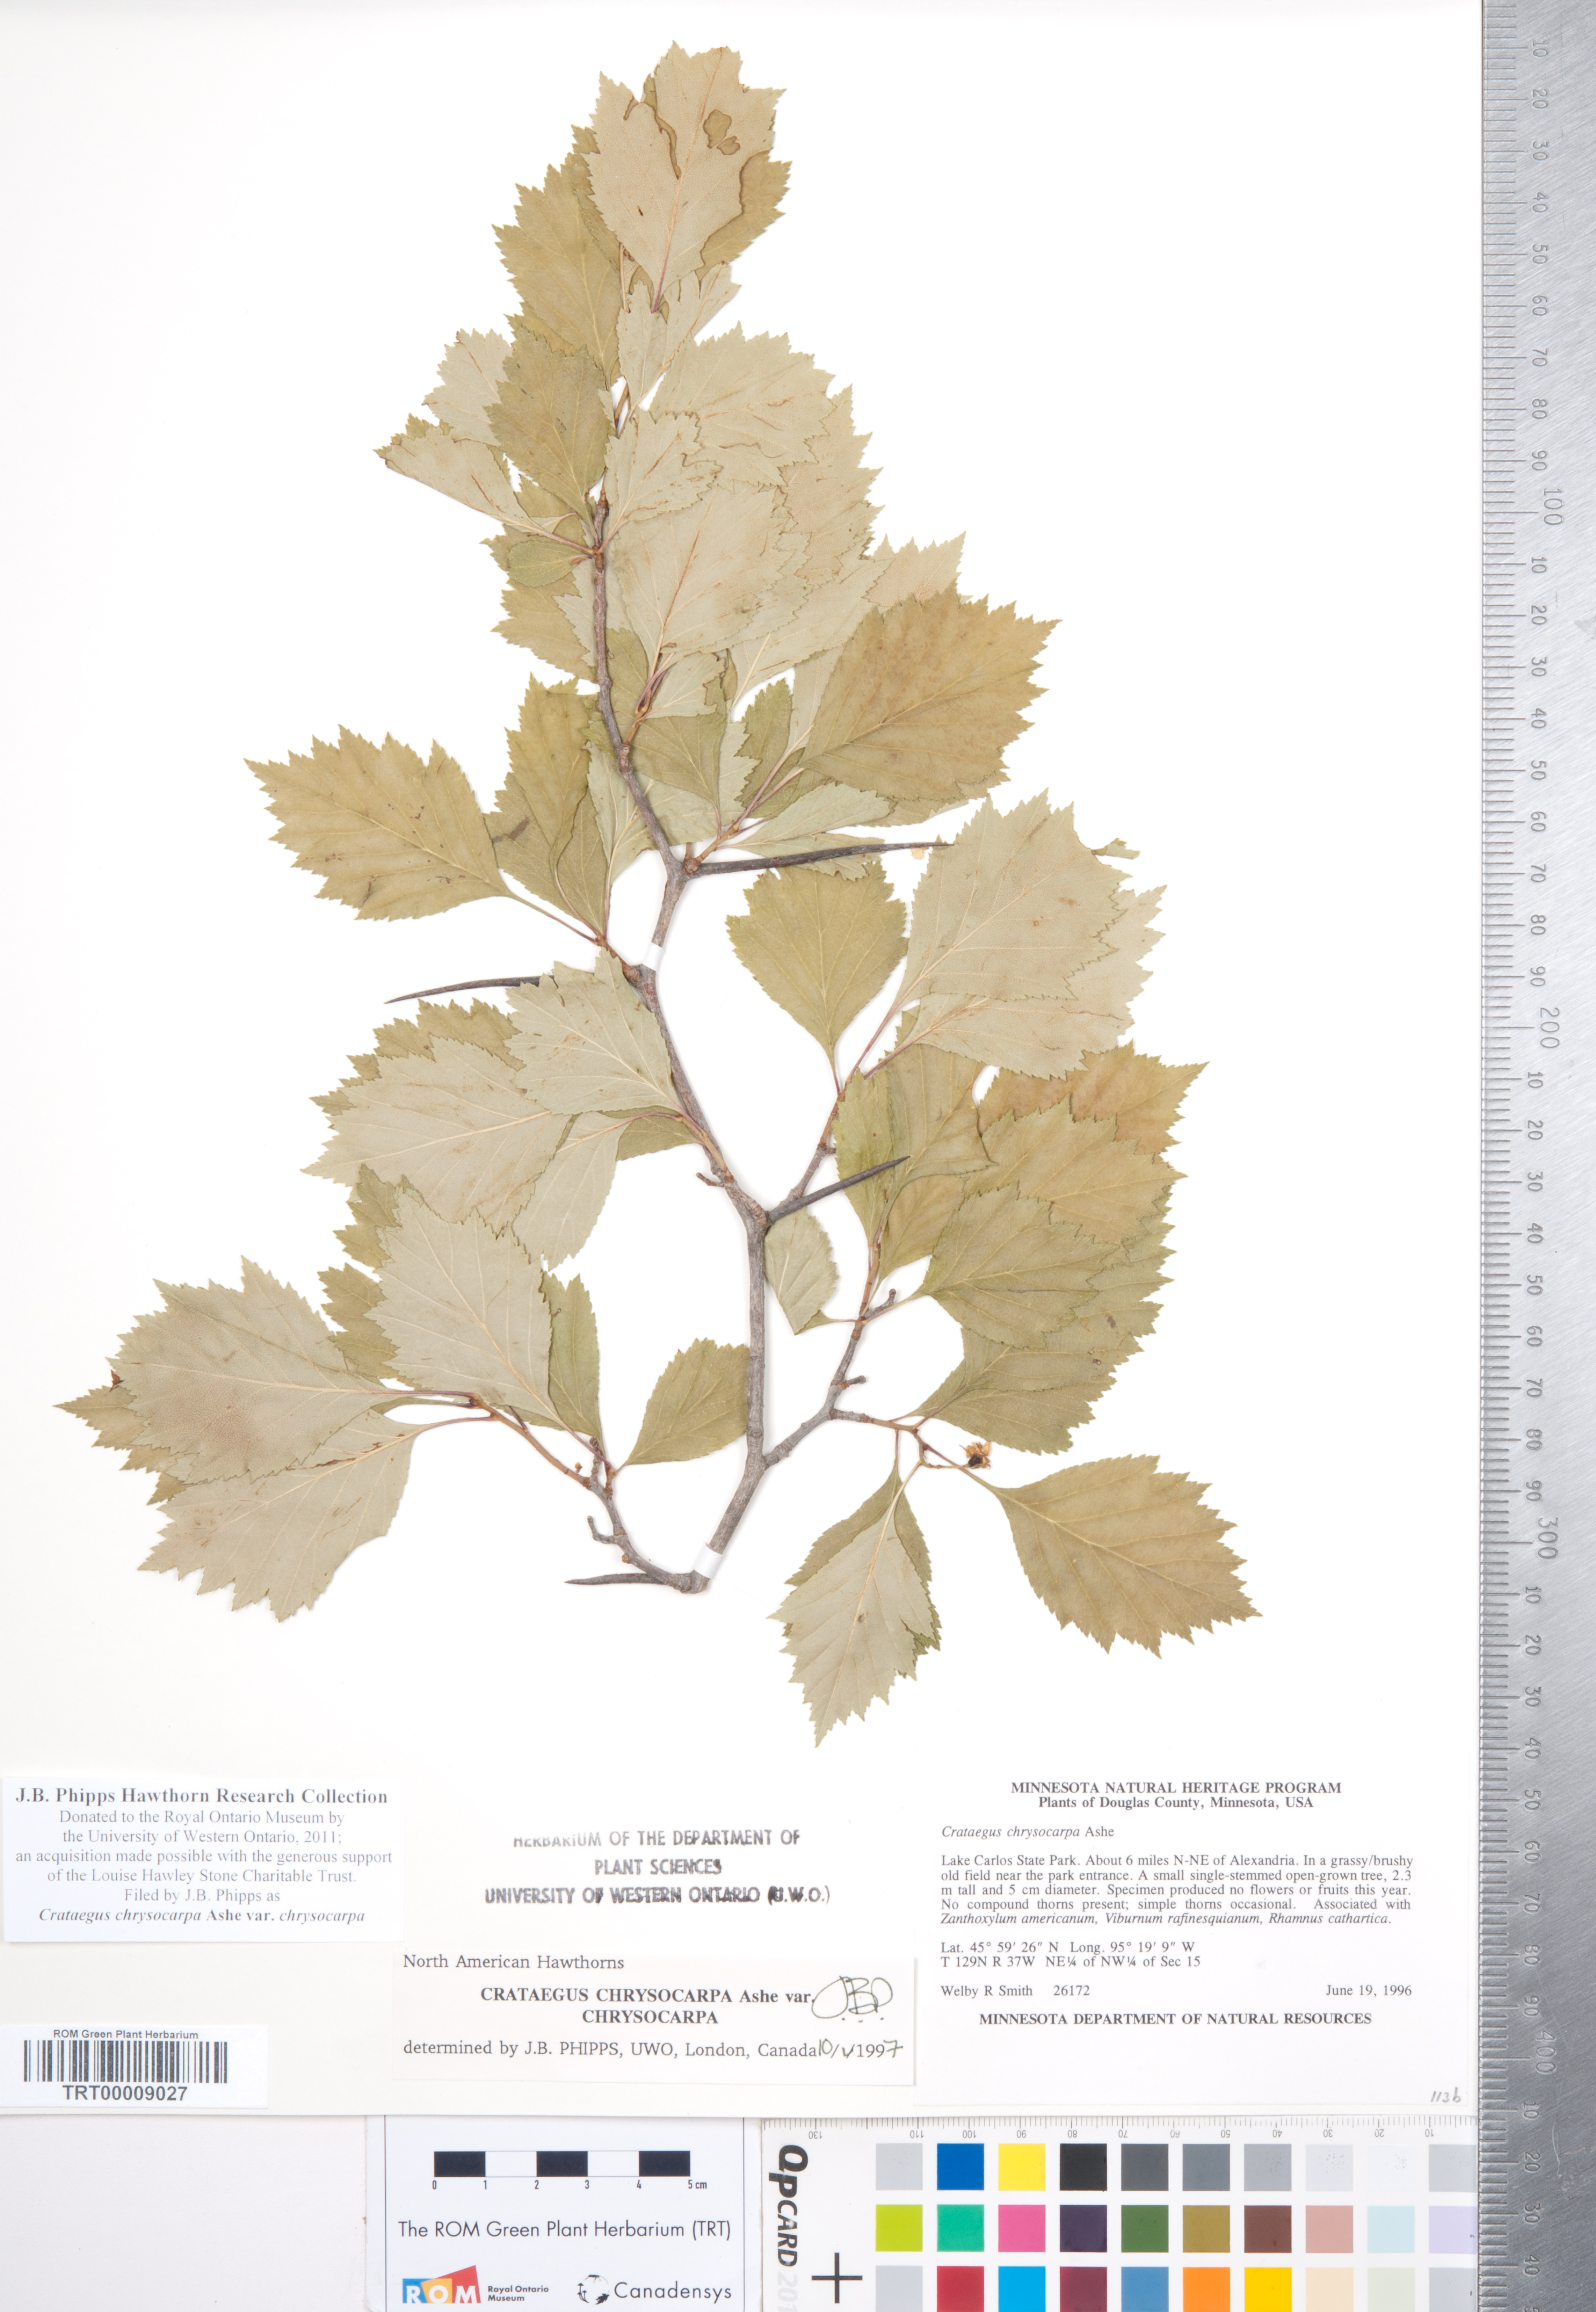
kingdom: Plantae
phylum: Tracheophyta
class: Magnoliopsida
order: Rosales
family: Rosaceae
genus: Crataegus
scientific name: Crataegus chrysocarpa
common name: Fire-berry hawthorn
